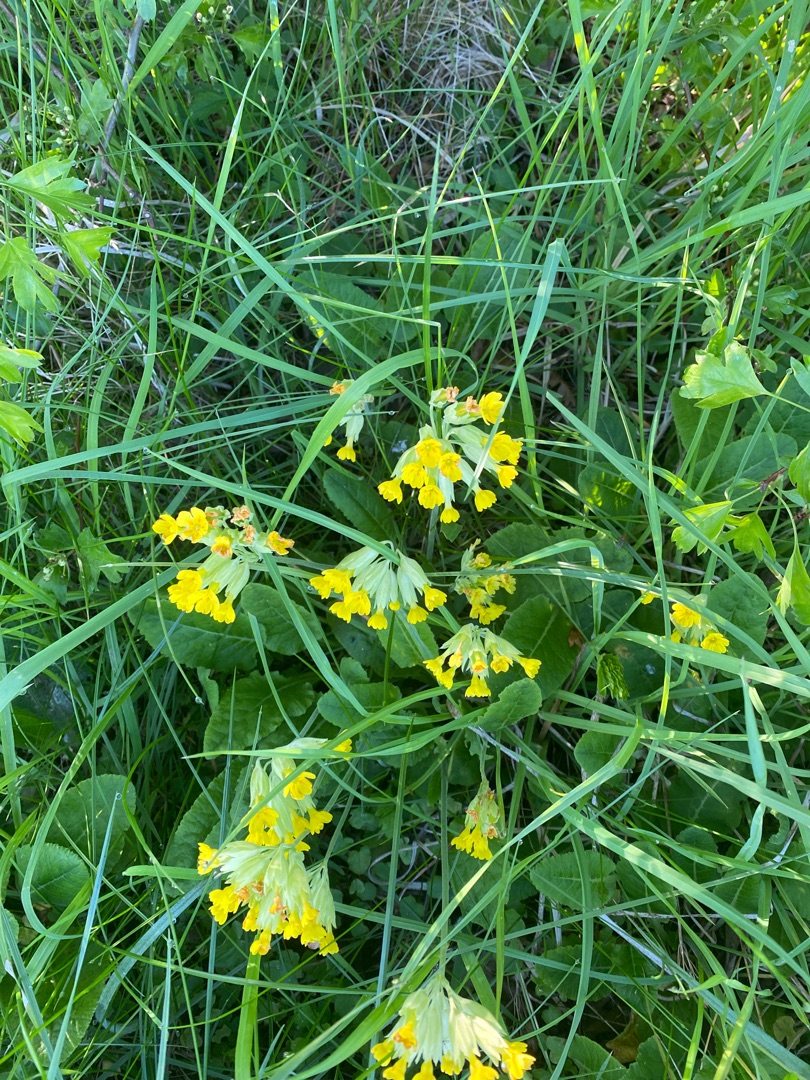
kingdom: Plantae
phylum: Tracheophyta
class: Magnoliopsida
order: Ericales
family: Primulaceae
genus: Primula
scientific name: Primula veris
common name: Hulkravet kodriver
